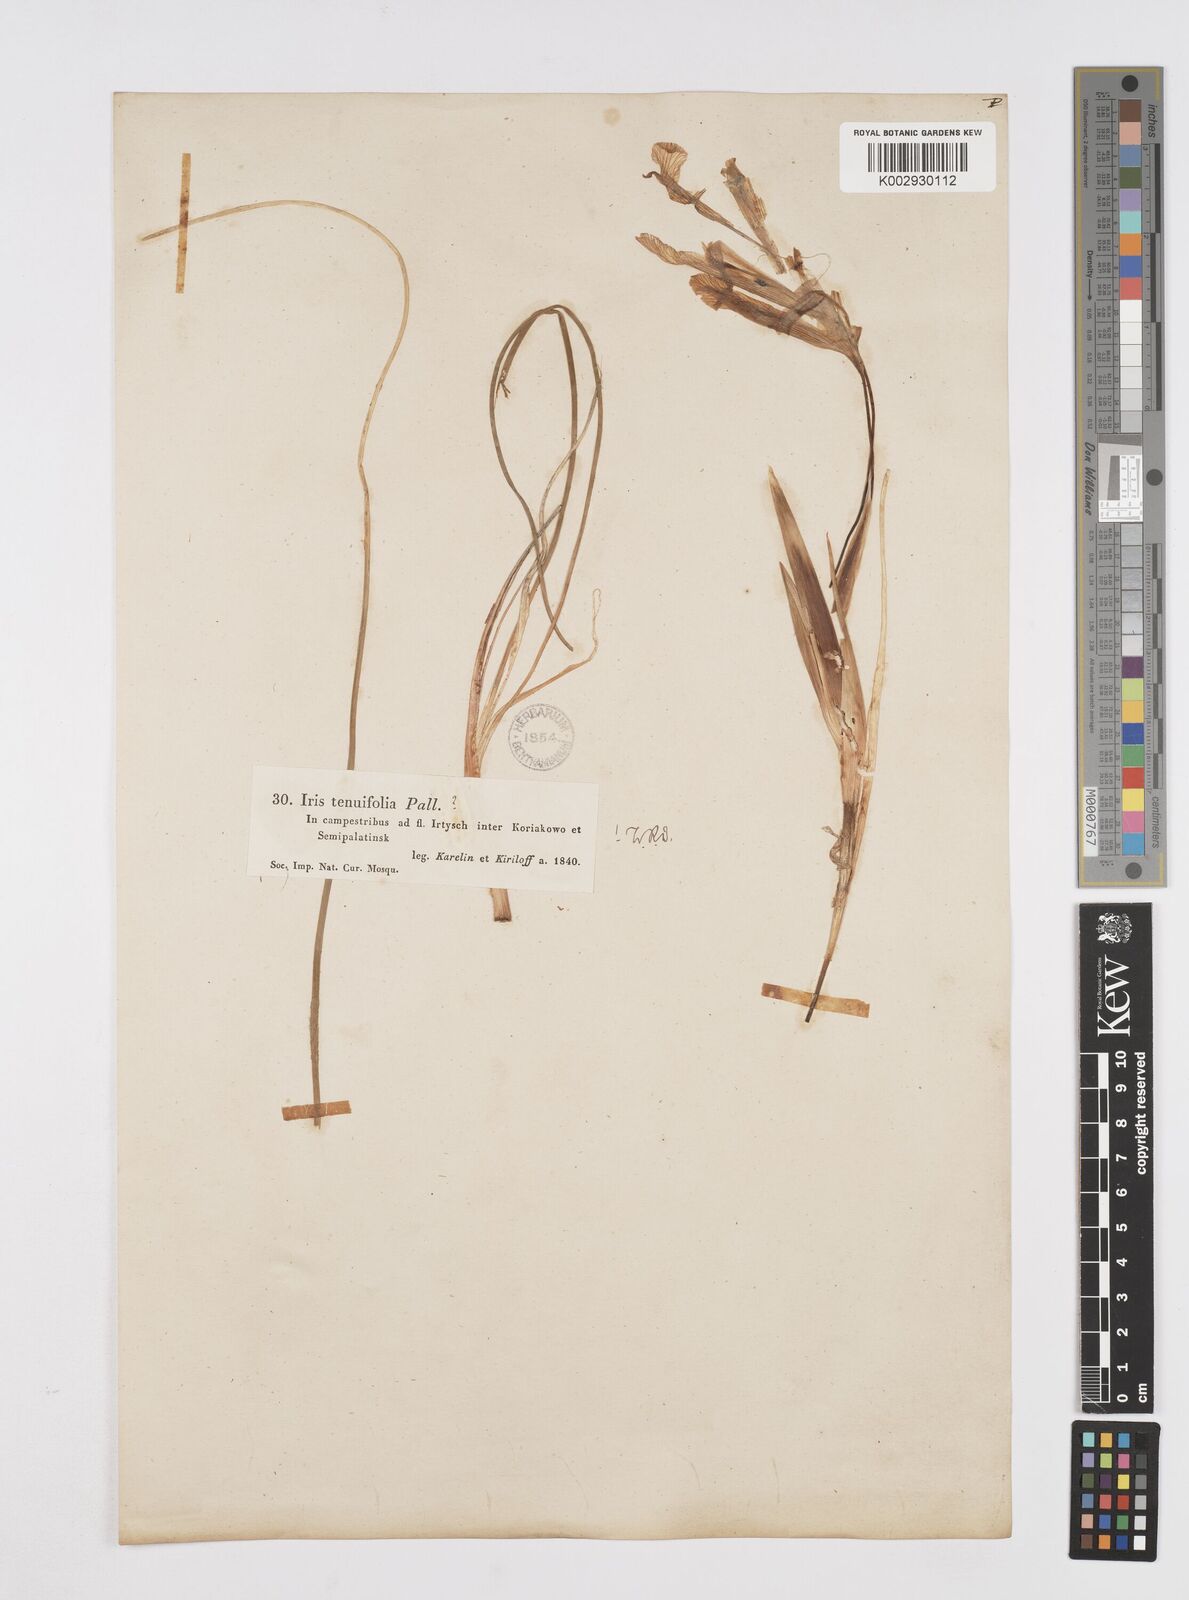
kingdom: Plantae
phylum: Tracheophyta
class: Liliopsida
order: Asparagales
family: Iridaceae
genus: Iris
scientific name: Iris tenuifolia
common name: Slender-leaf iris
